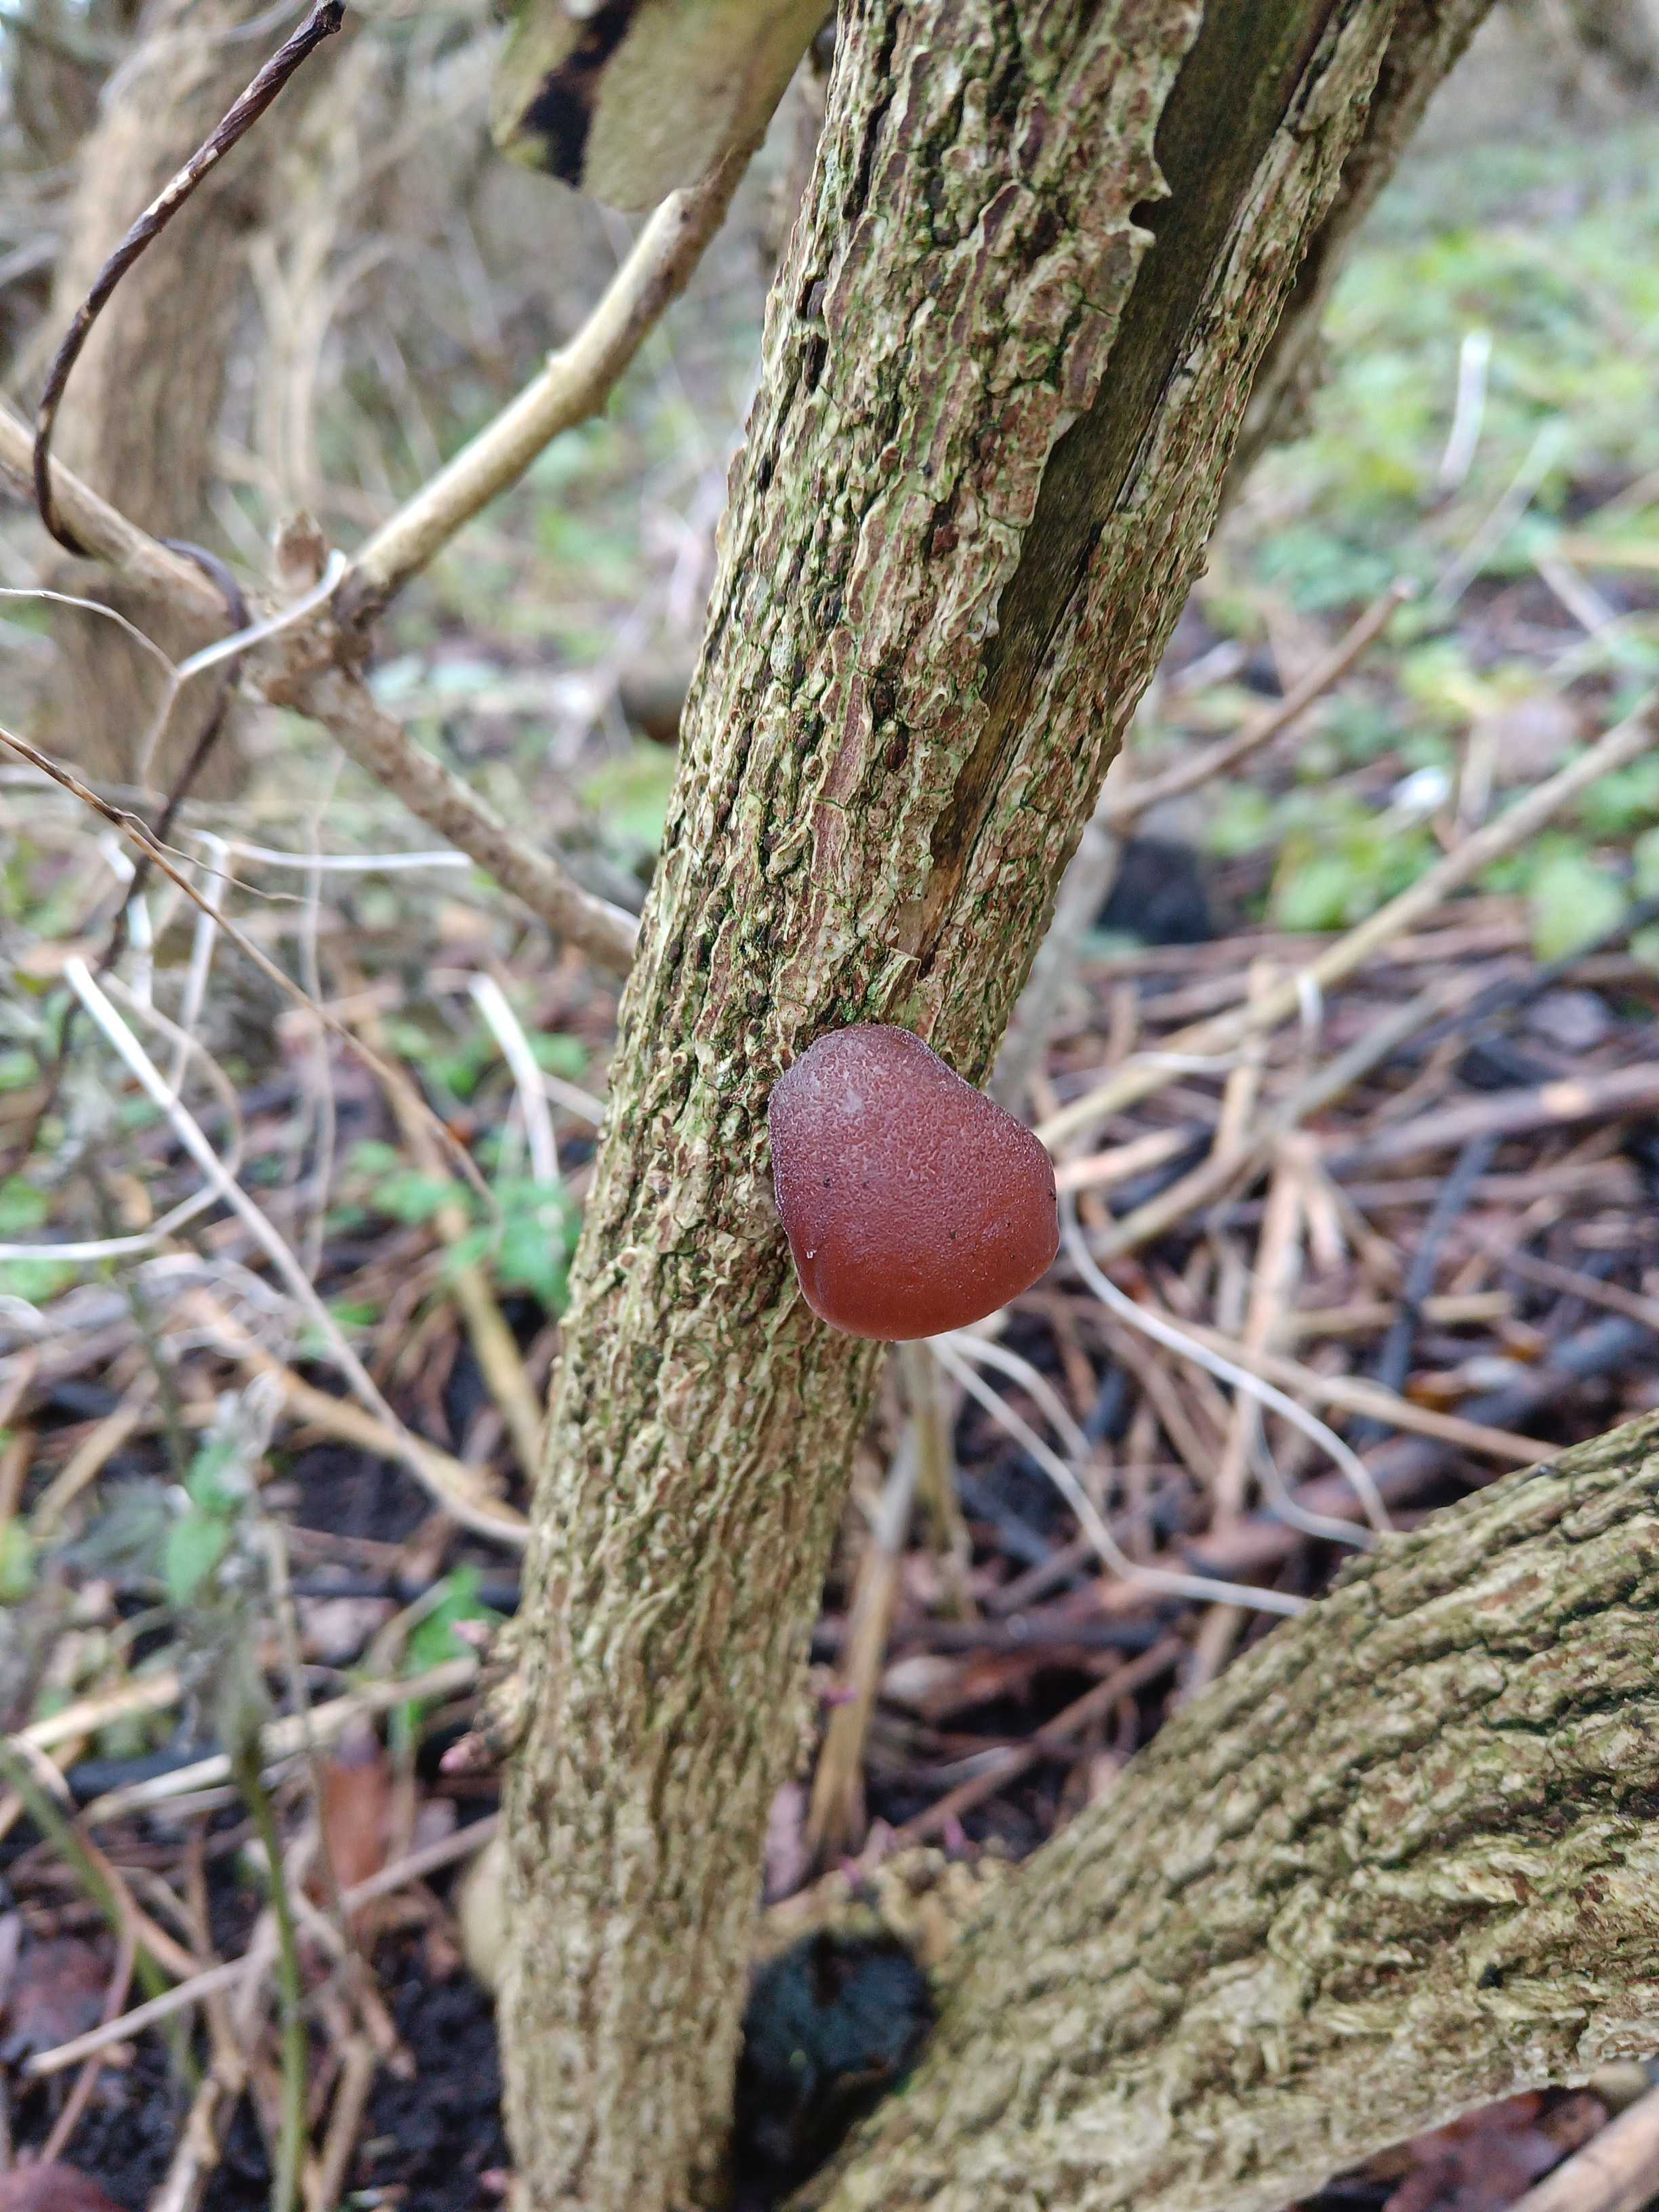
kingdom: Fungi
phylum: Basidiomycota
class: Agaricomycetes
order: Auriculariales
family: Auriculariaceae
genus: Auricularia
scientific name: Auricularia auricula-judae
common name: almindelig judasøre
